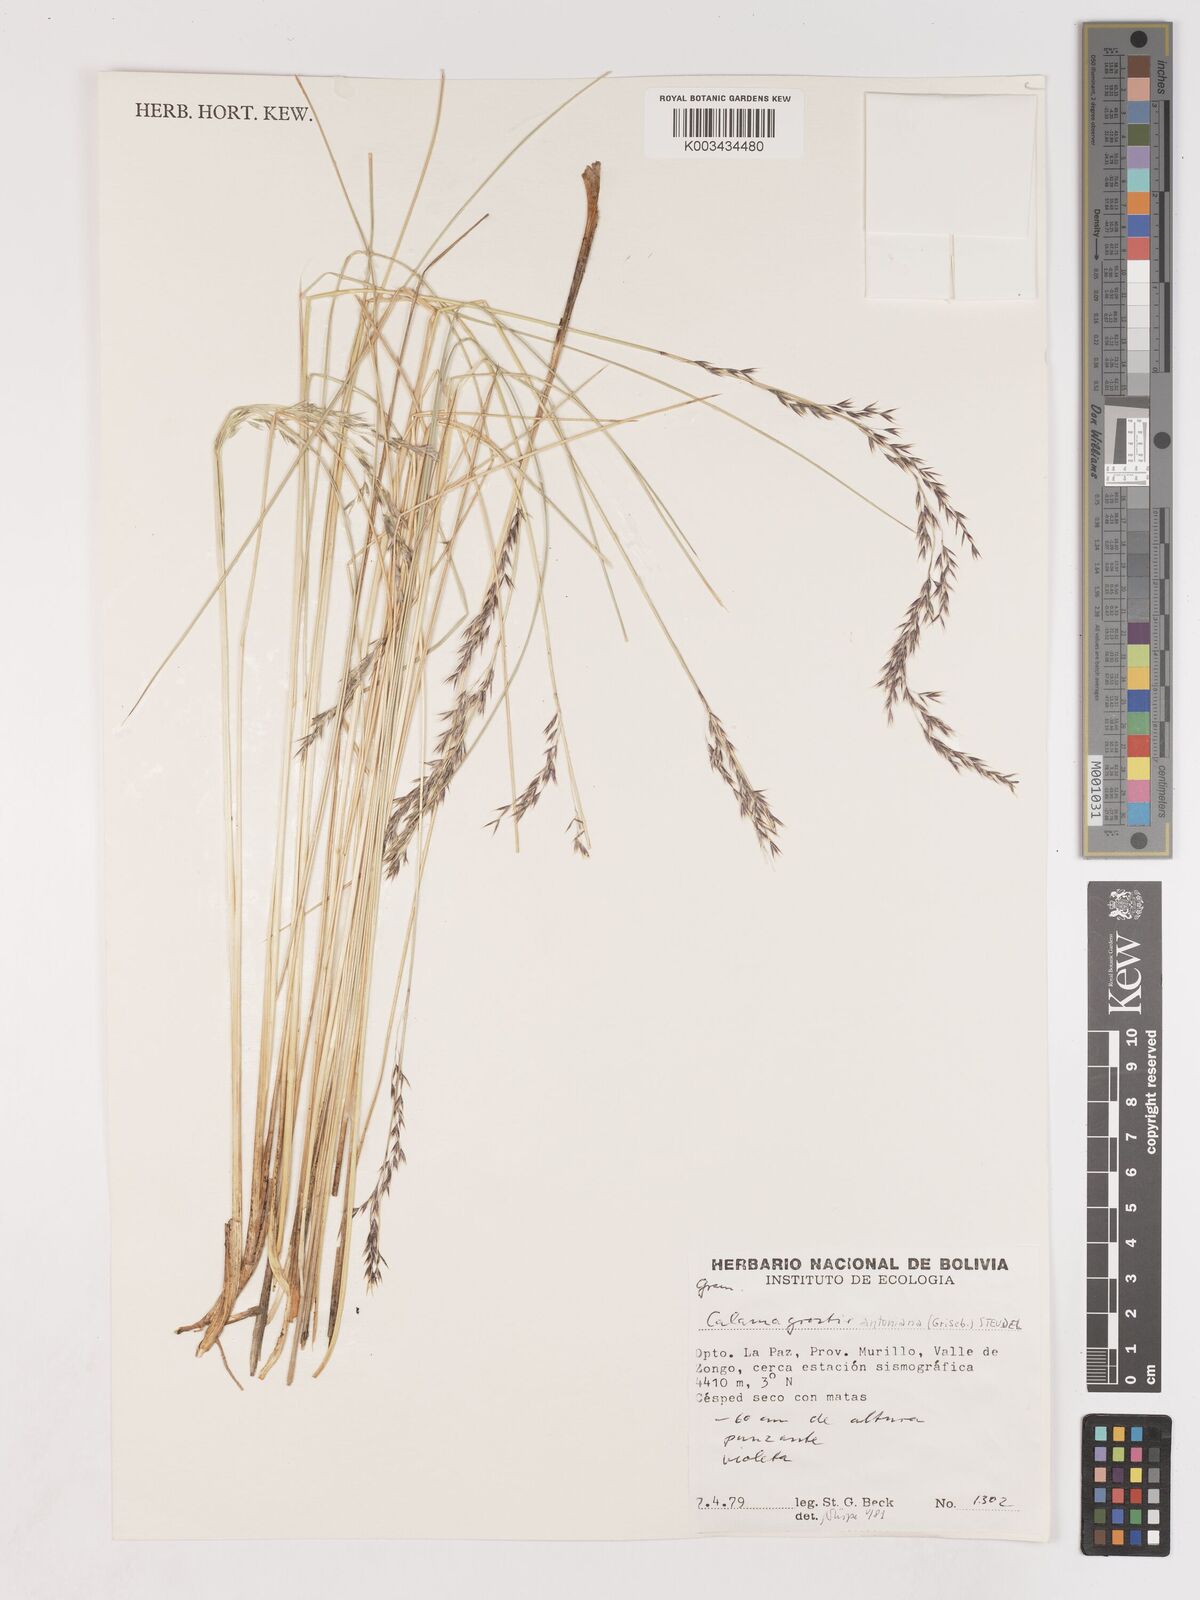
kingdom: Plantae
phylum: Tracheophyta
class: Liliopsida
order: Poales
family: Poaceae
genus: Cinnagrostis
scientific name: Cinnagrostis rigida
